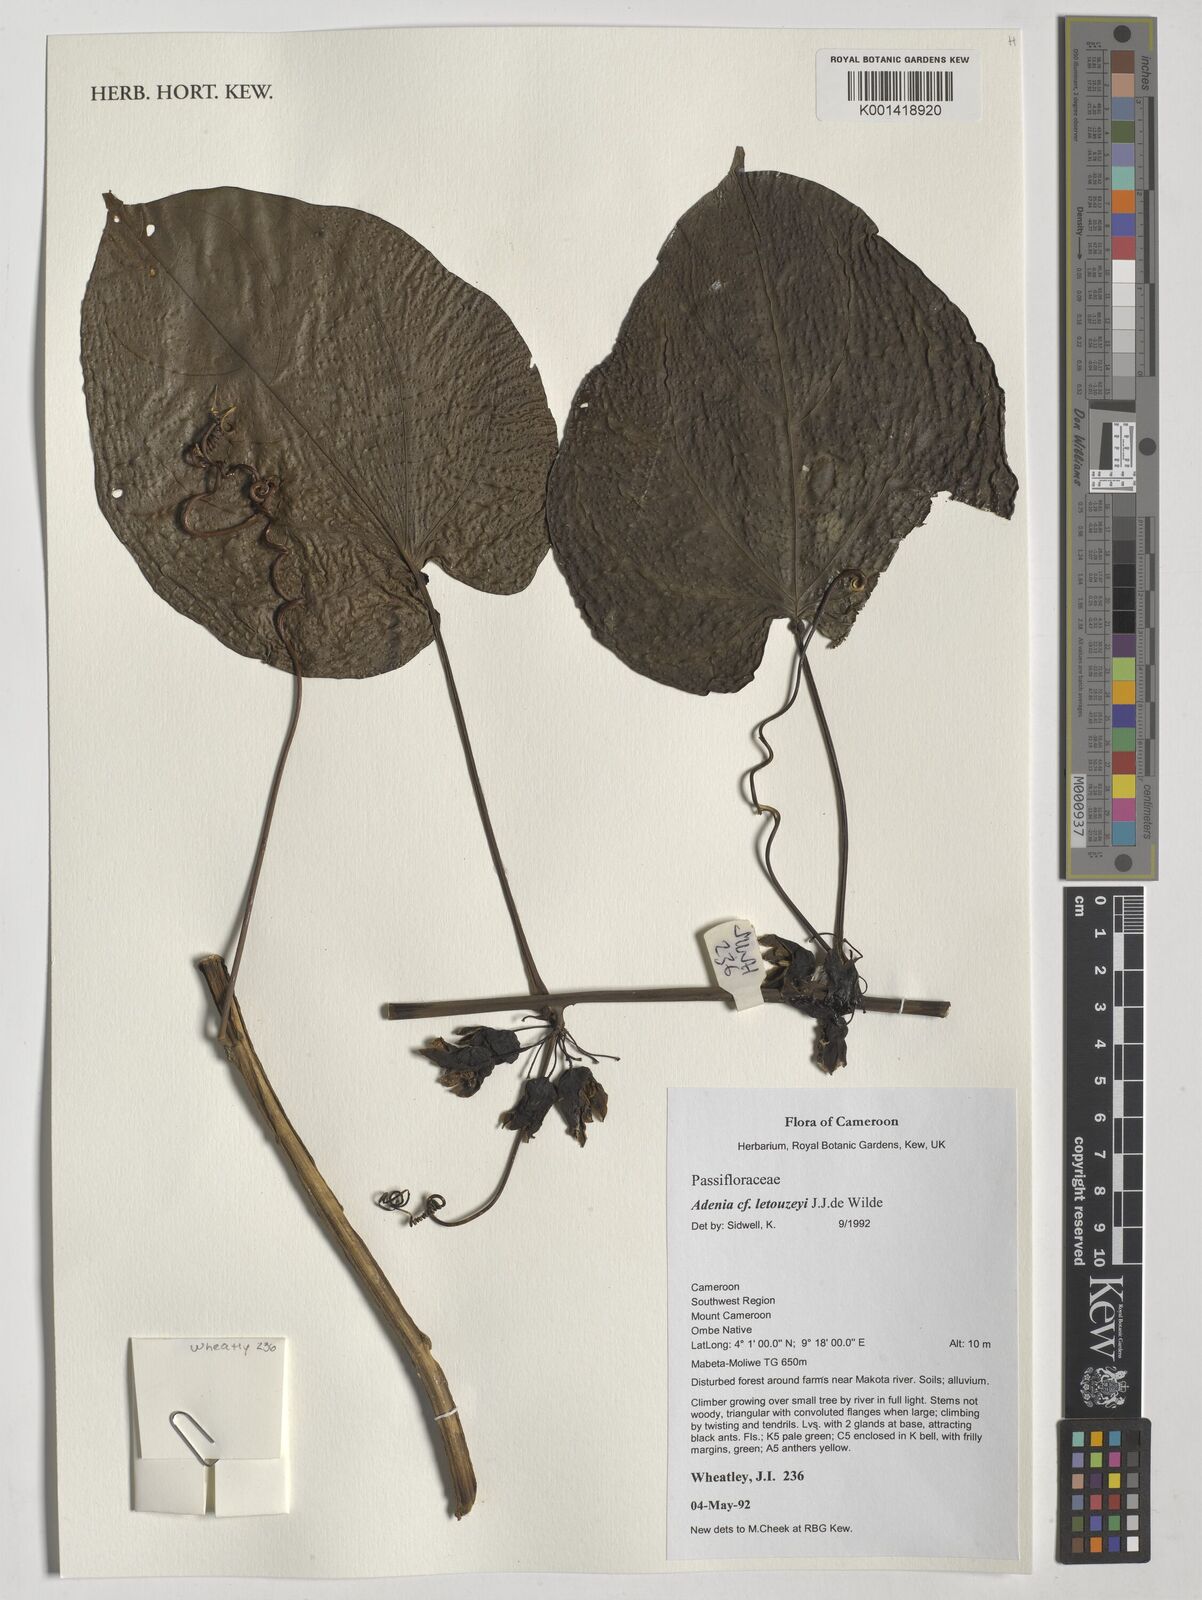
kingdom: Plantae
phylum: Tracheophyta
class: Magnoliopsida
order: Malpighiales
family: Passifloraceae
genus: Adenia
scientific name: Adenia lobata
